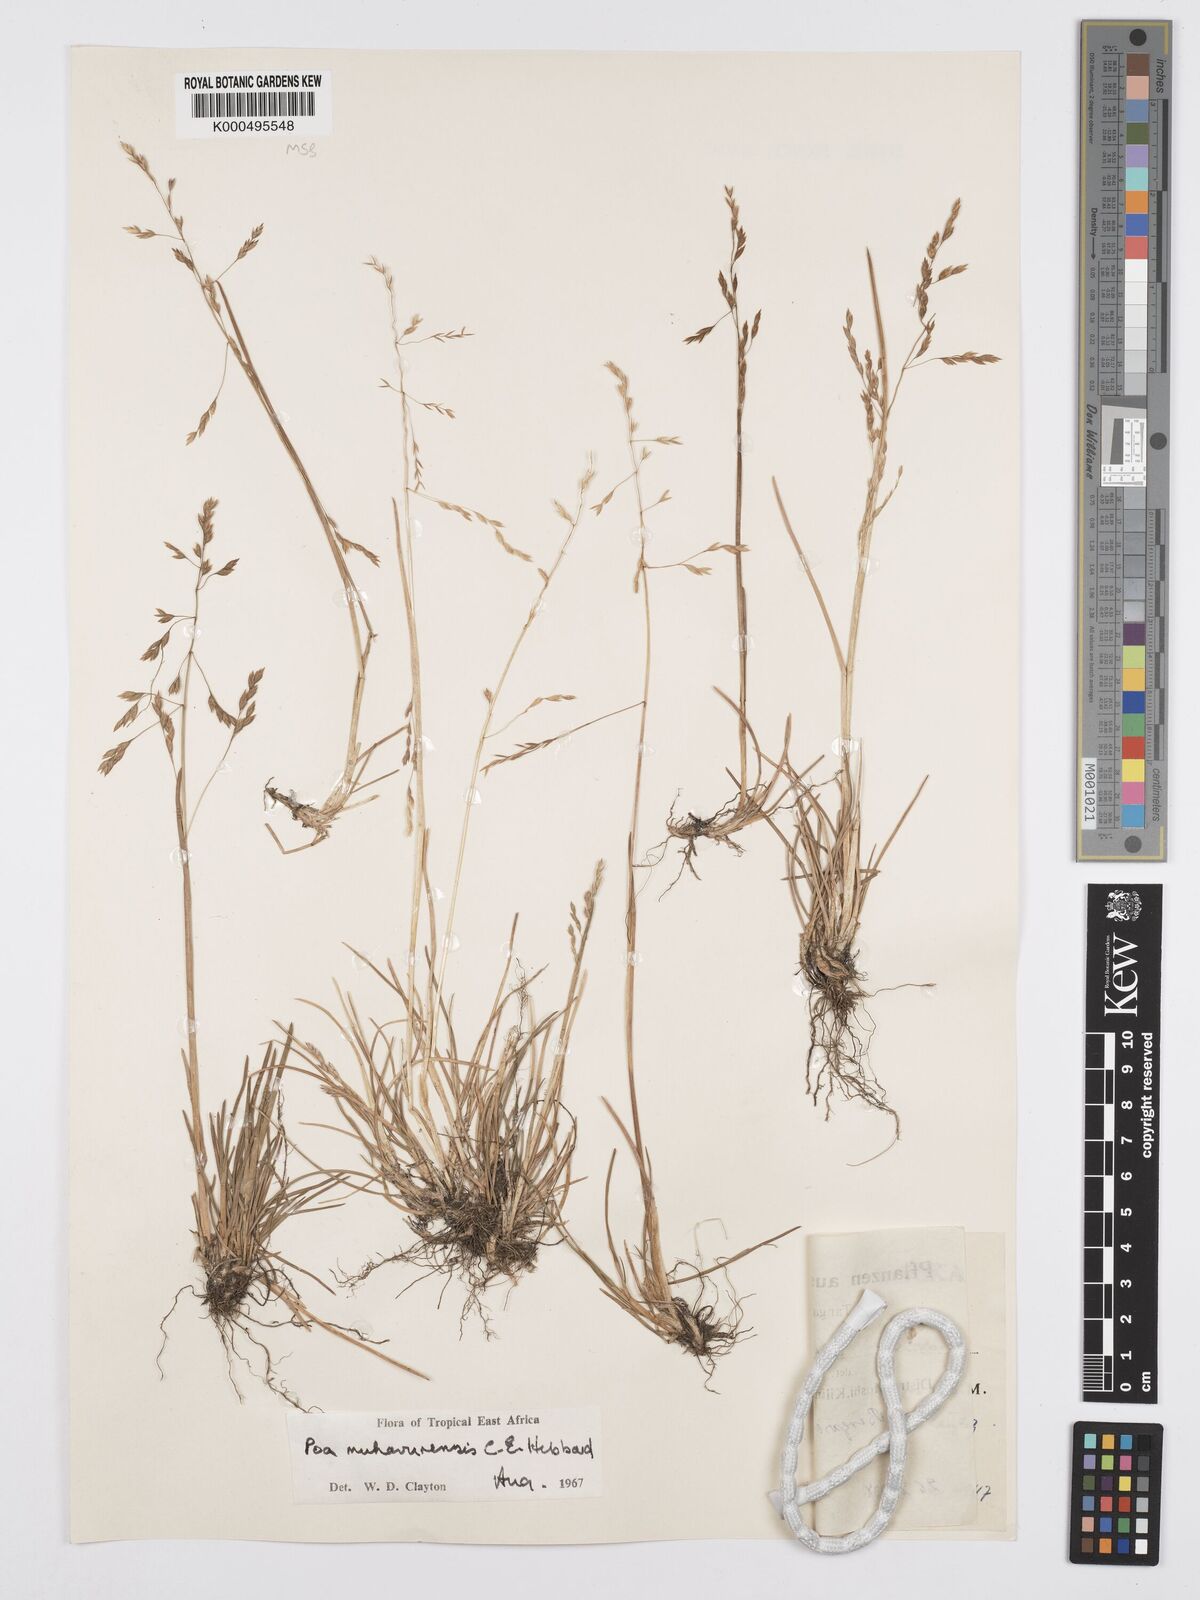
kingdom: Plantae
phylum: Tracheophyta
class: Liliopsida
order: Poales
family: Poaceae
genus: Poa
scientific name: Poa schimperiana
